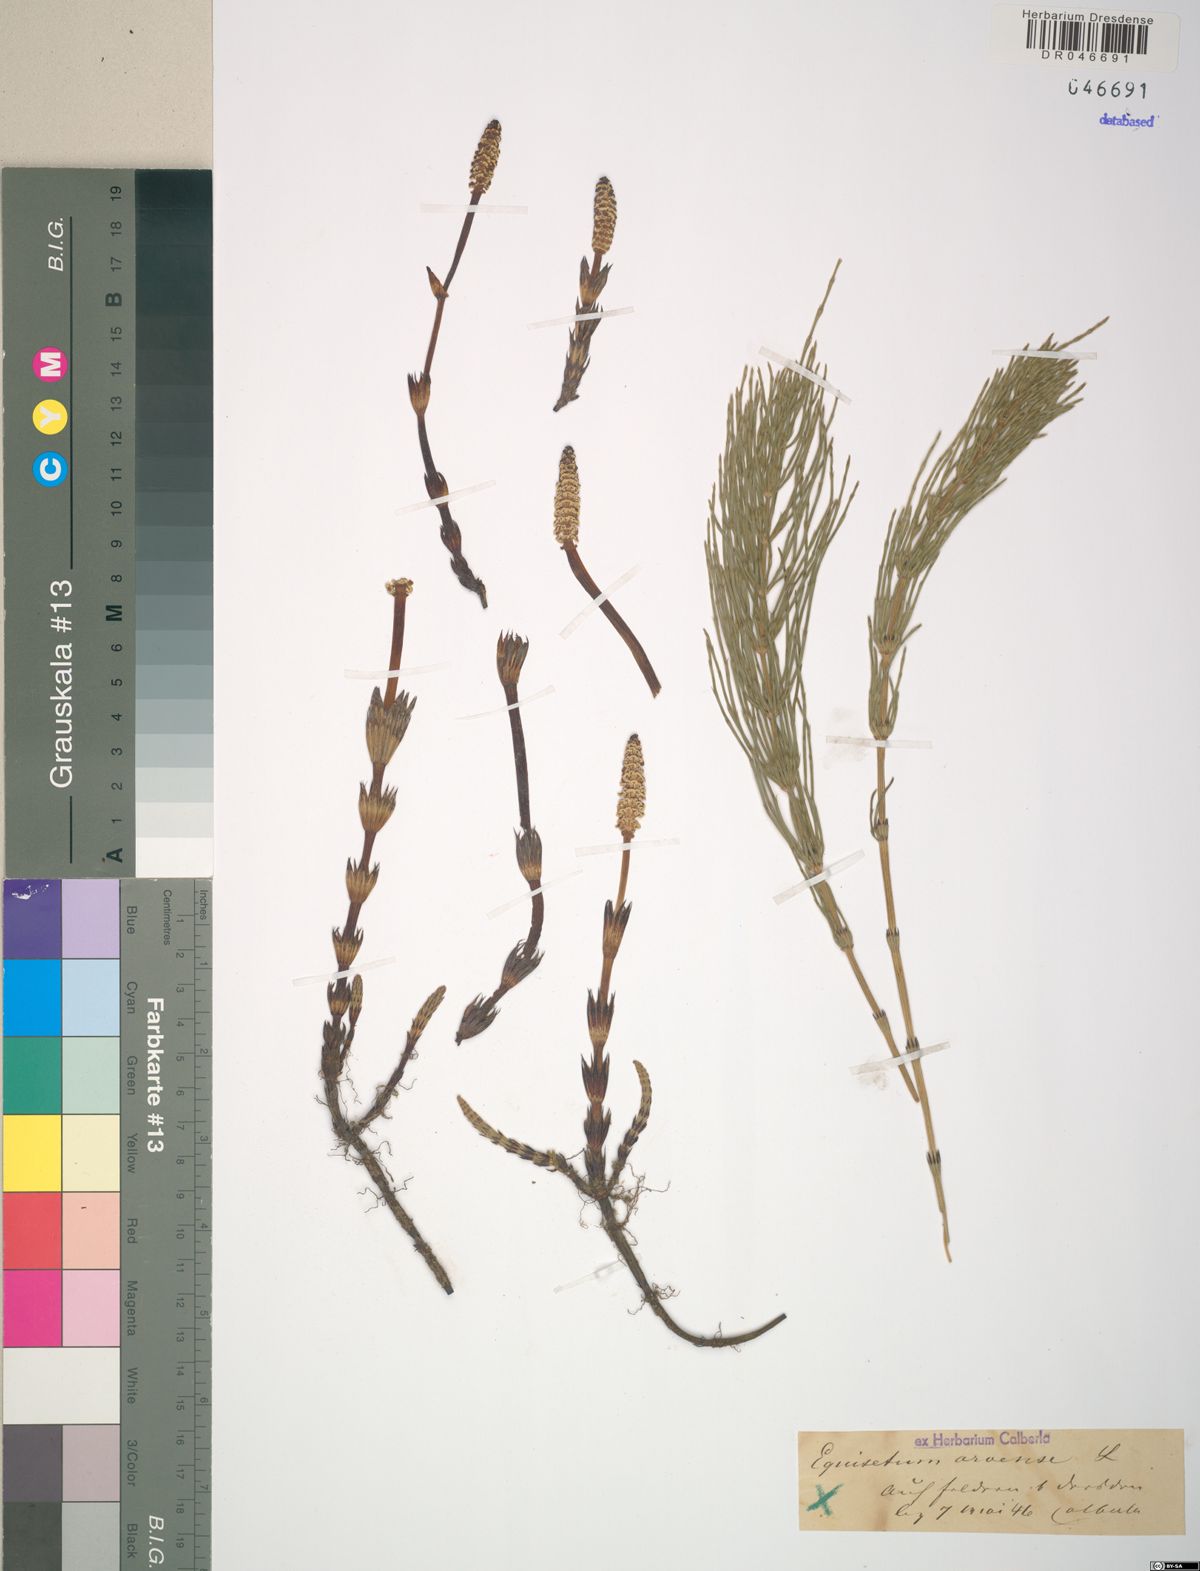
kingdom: Plantae
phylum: Tracheophyta
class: Polypodiopsida
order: Equisetales
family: Equisetaceae
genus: Equisetum
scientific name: Equisetum arvense
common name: Field horsetail
